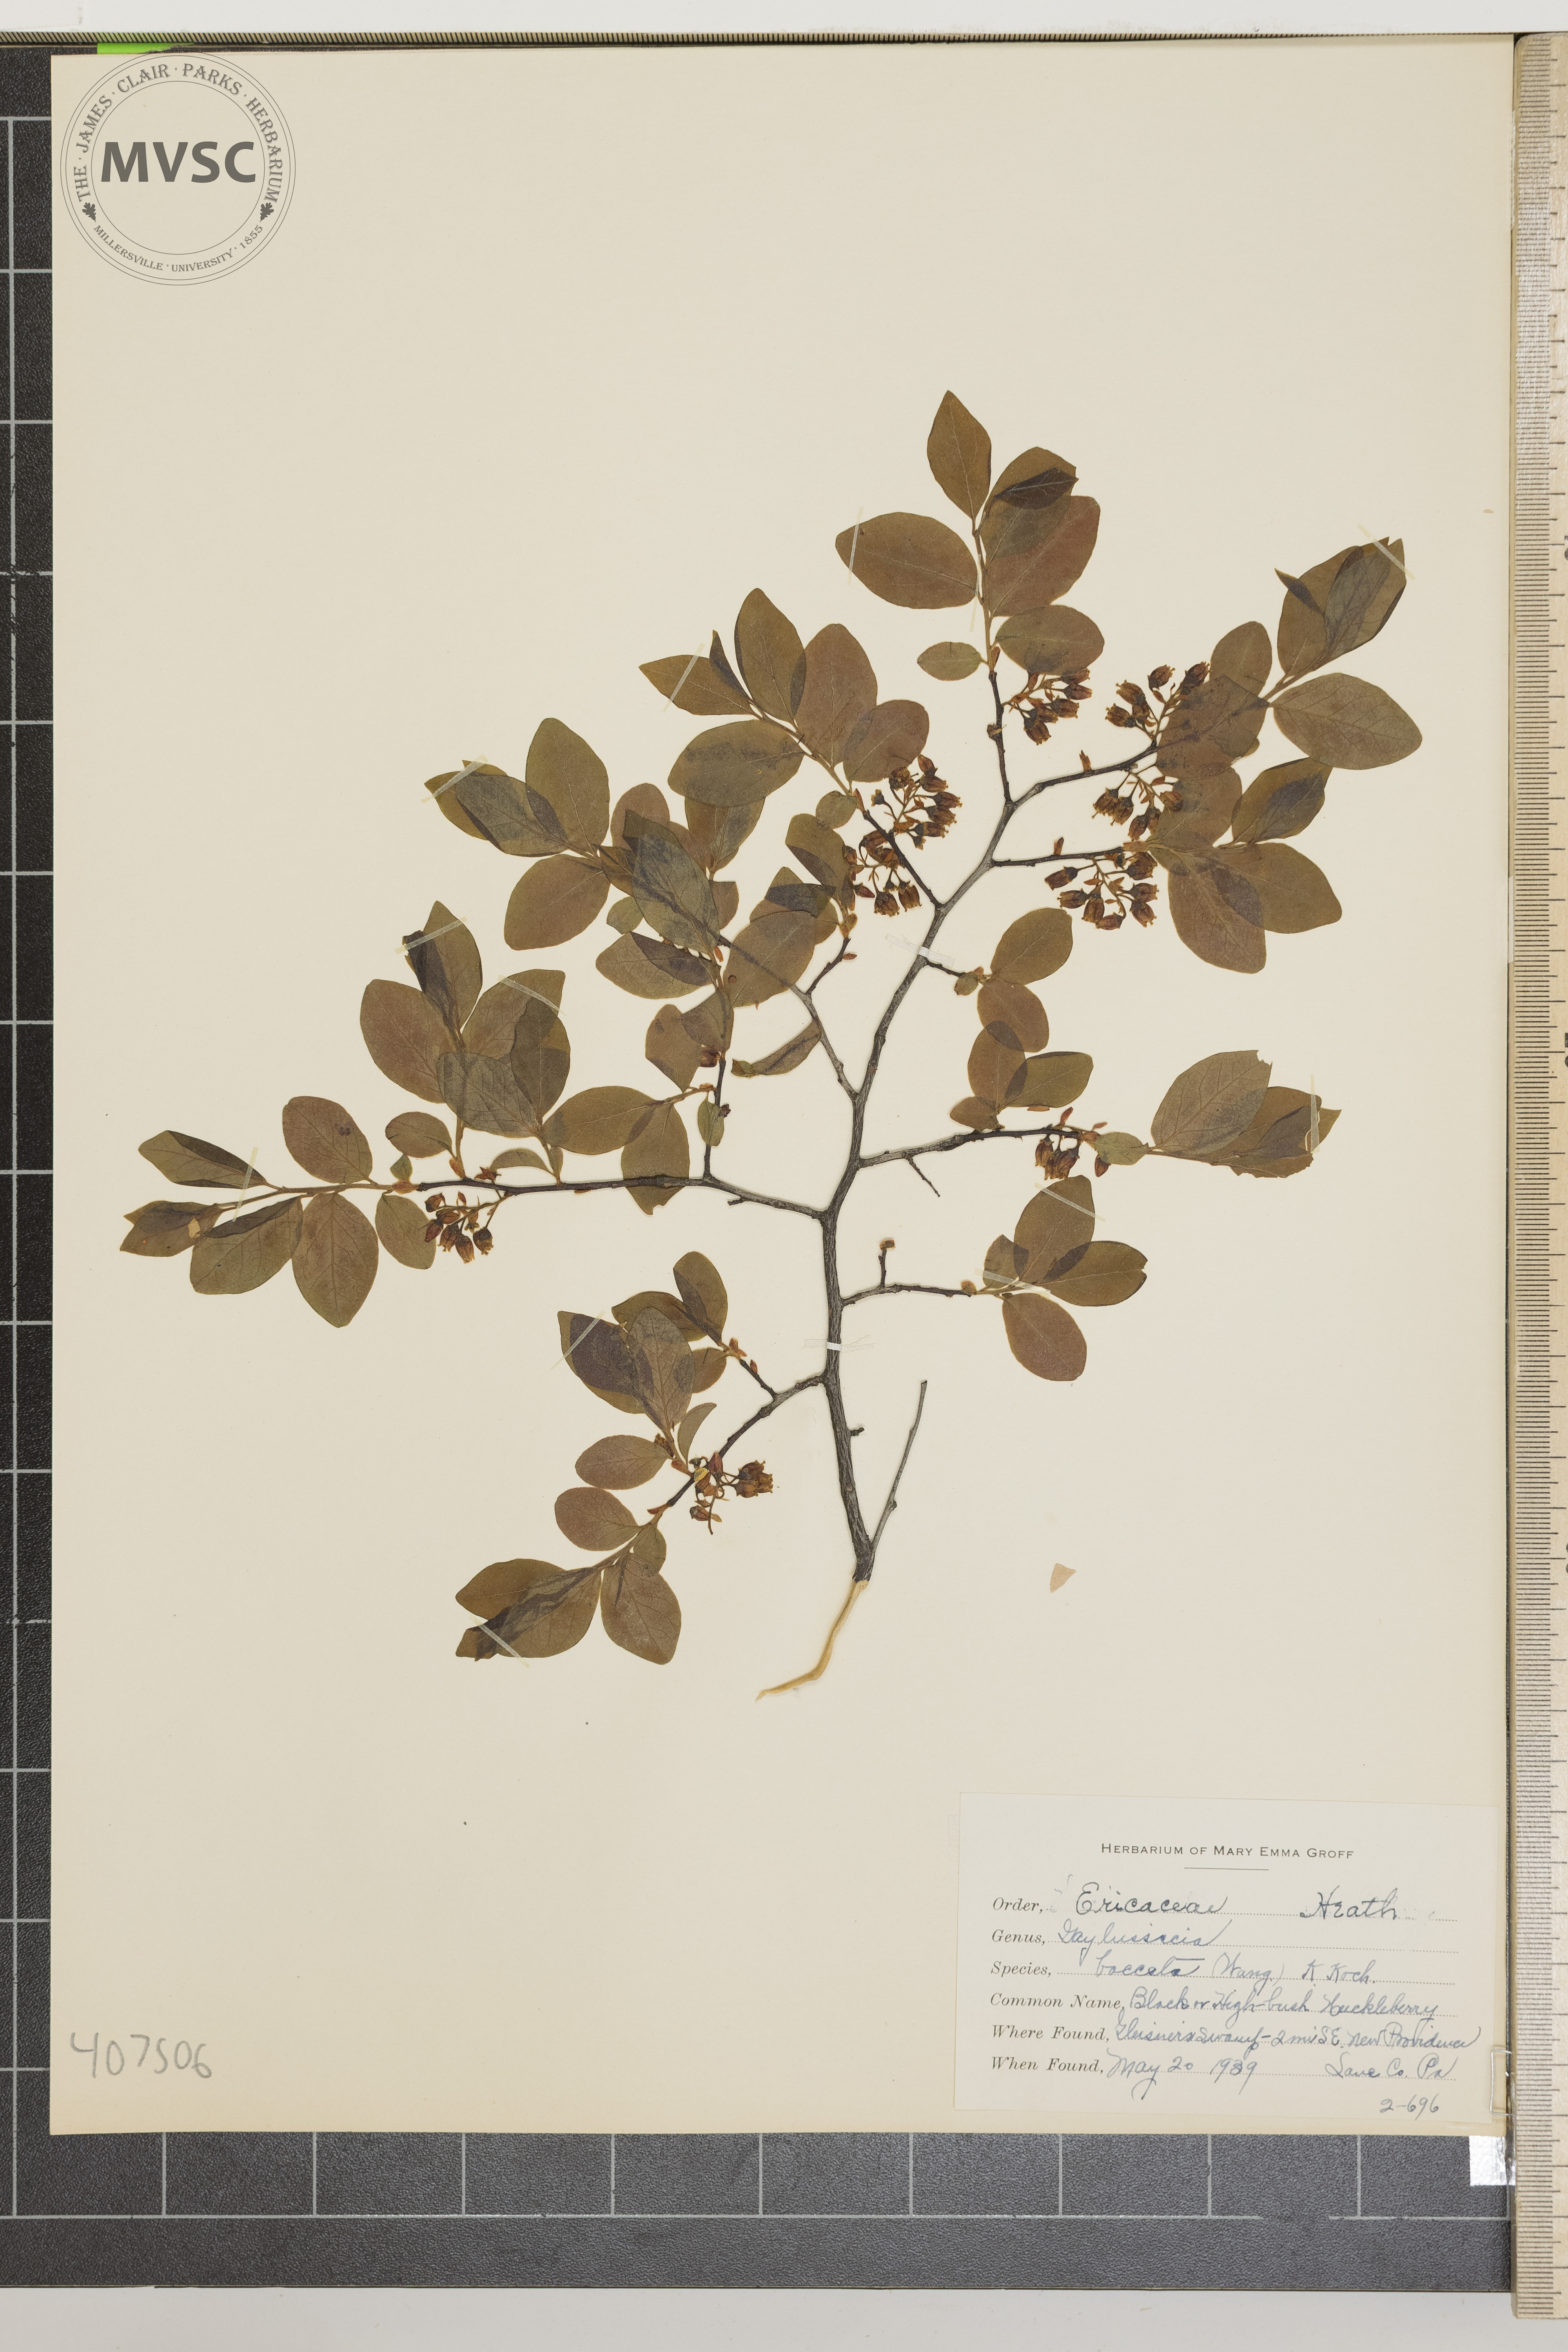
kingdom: Plantae
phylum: Tracheophyta
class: Magnoliopsida
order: Ericales
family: Ericaceae
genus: Gaylussacia
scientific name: Gaylussacia baccata
